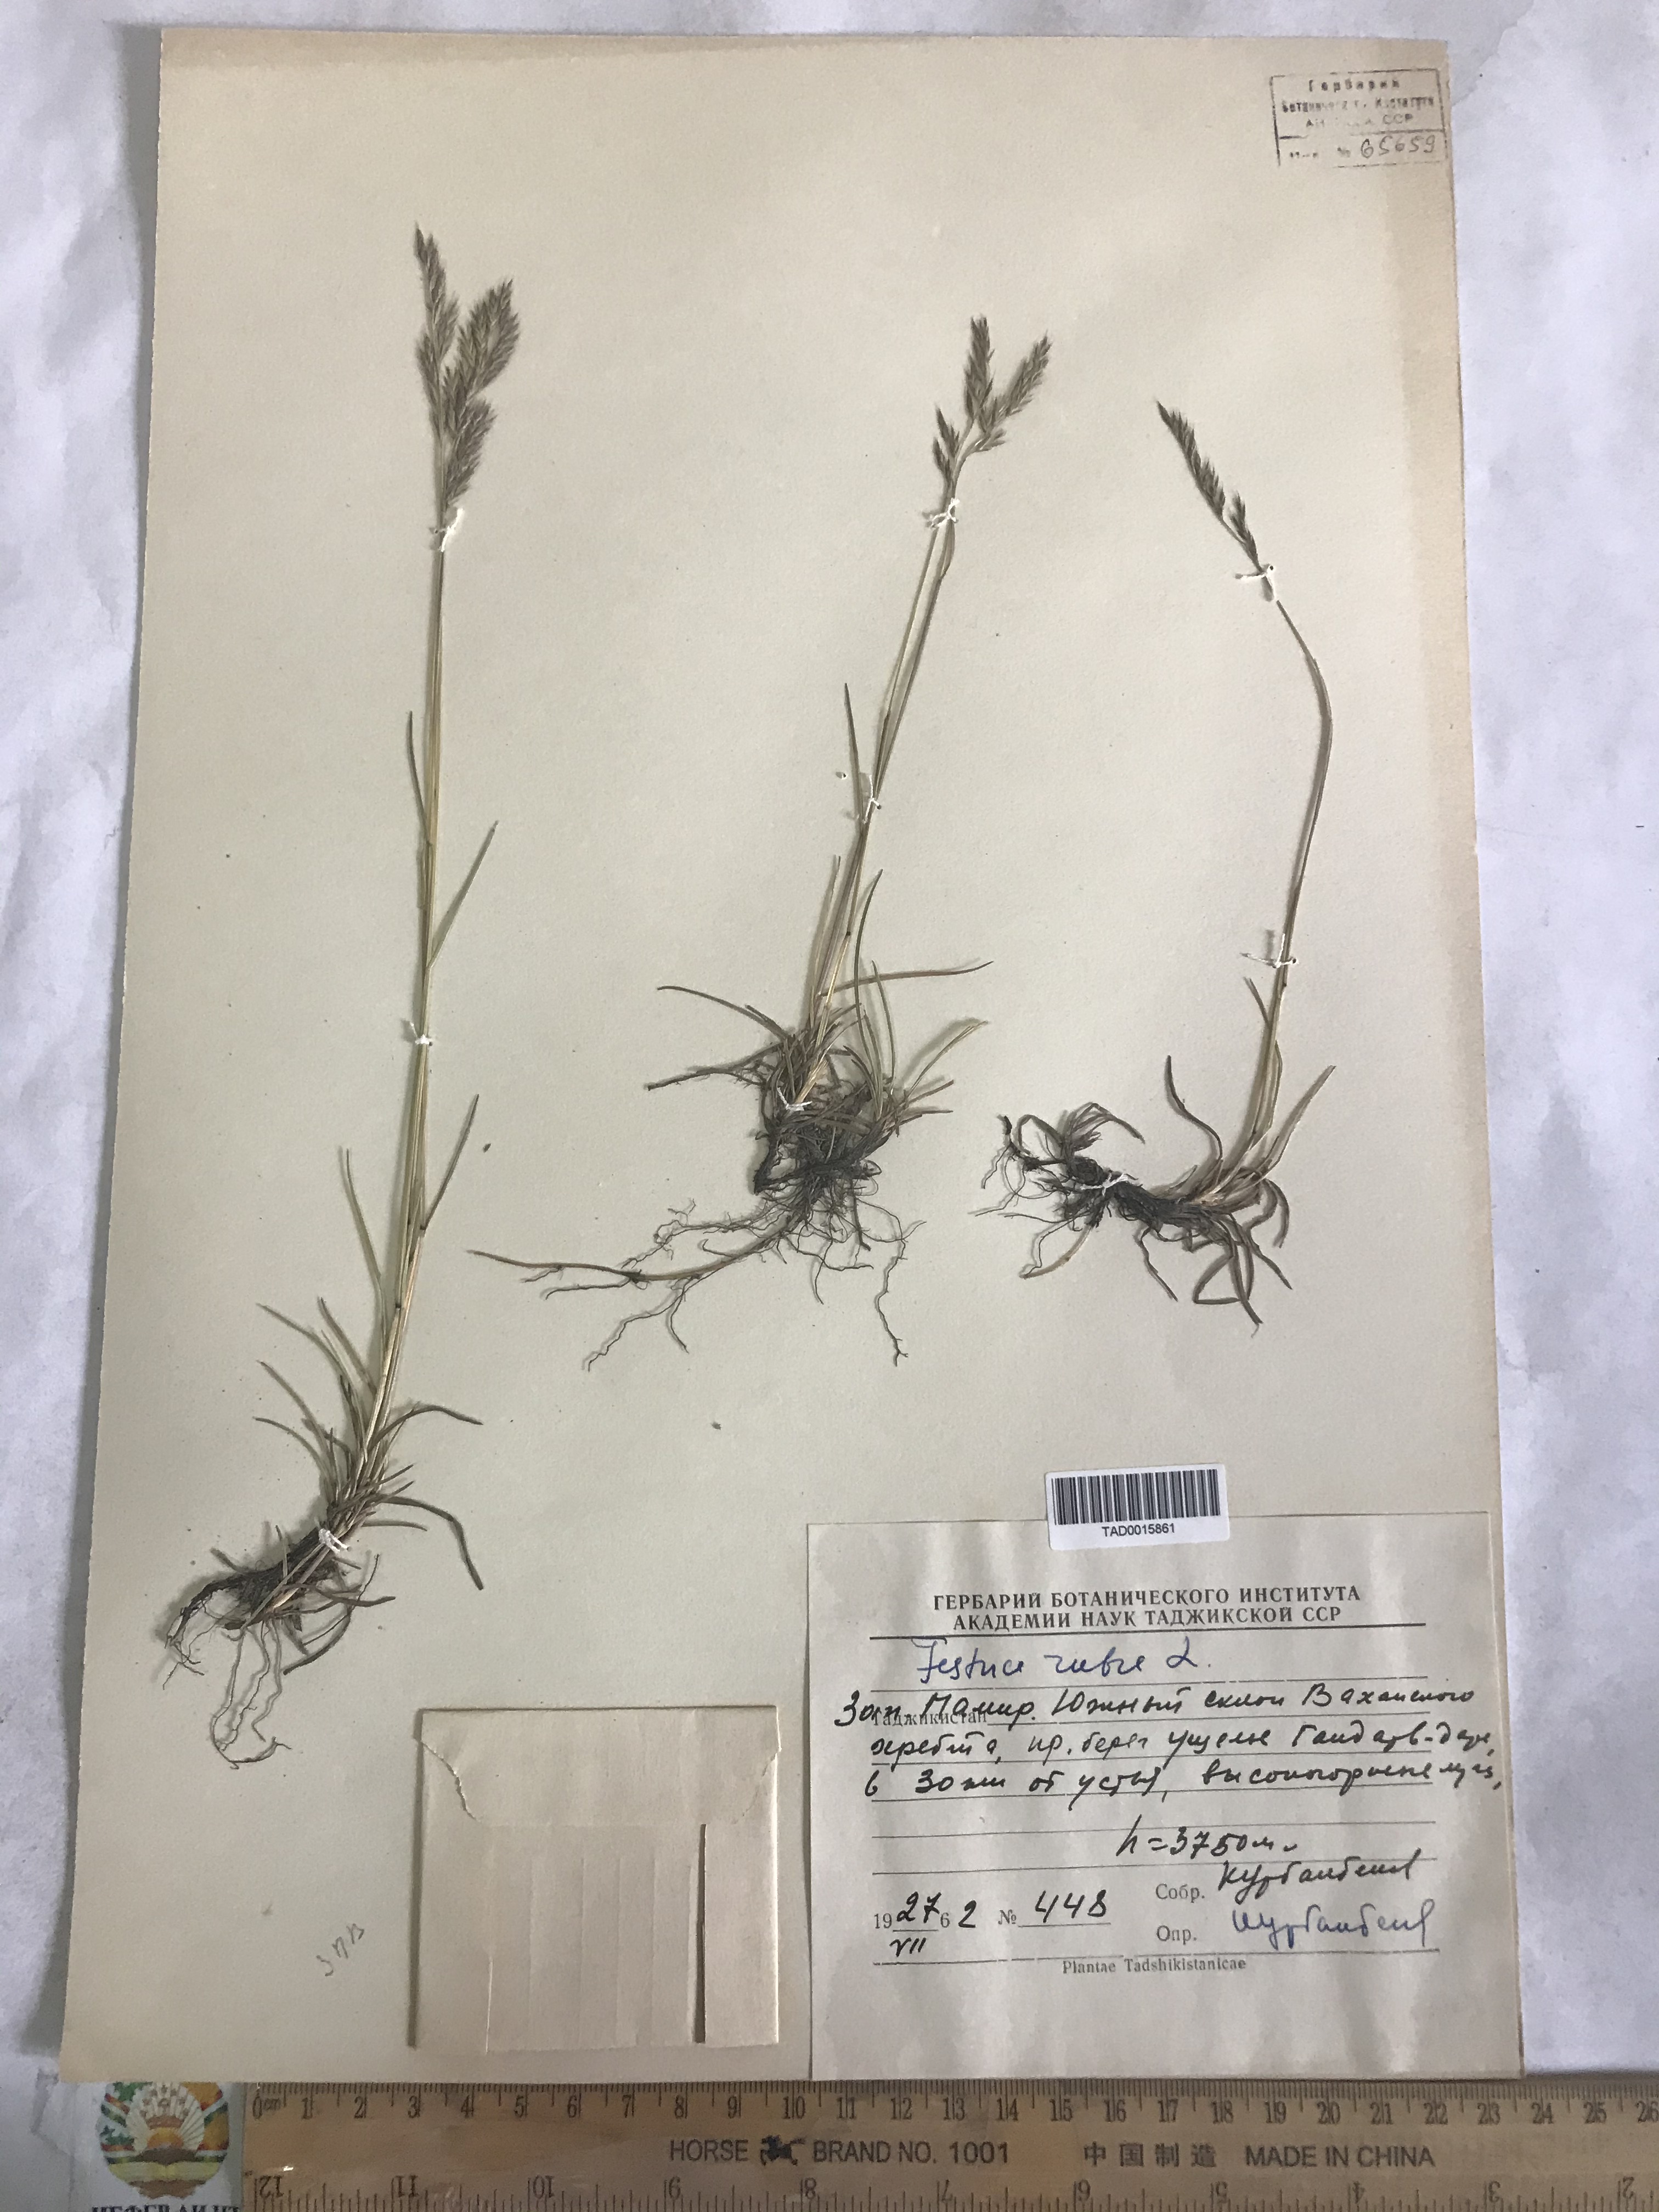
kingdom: Plantae
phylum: Tracheophyta
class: Liliopsida
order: Poales
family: Poaceae
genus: Festuca
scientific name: Festuca rubra
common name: Red fescue
